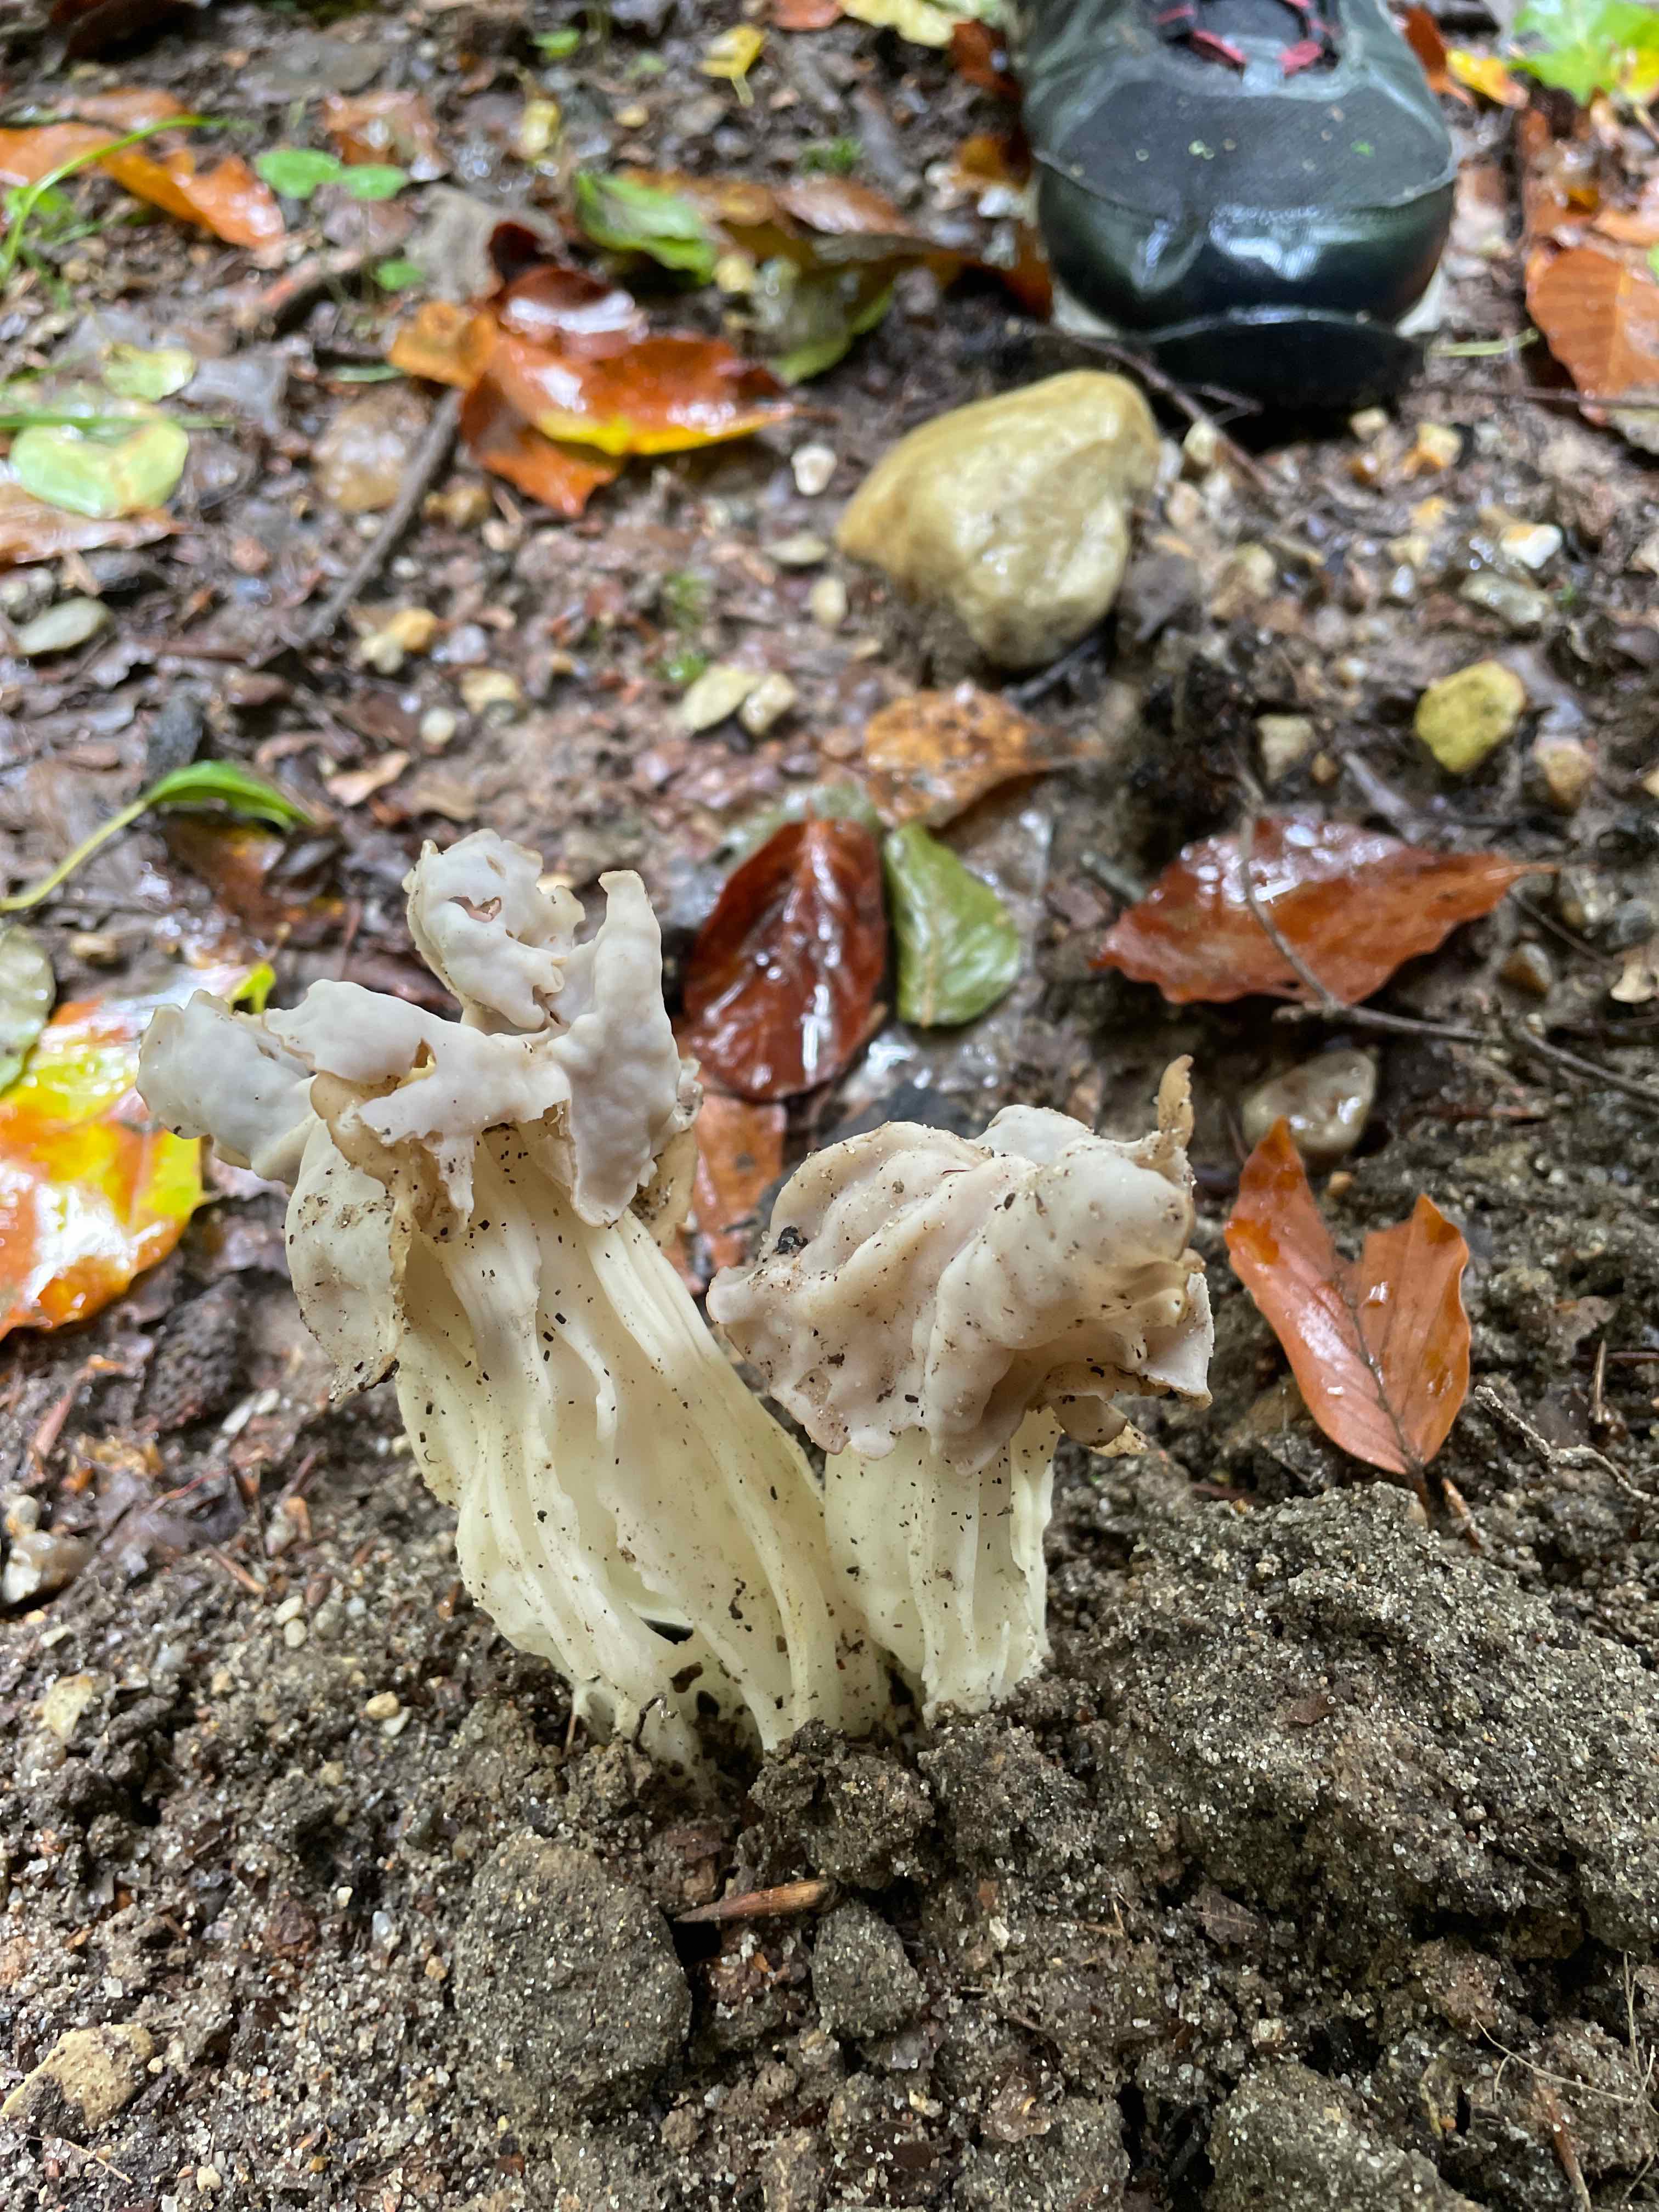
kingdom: Fungi
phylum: Ascomycota
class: Pezizomycetes
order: Pezizales
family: Helvellaceae
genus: Helvella
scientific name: Helvella crispa
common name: kruset foldhat
